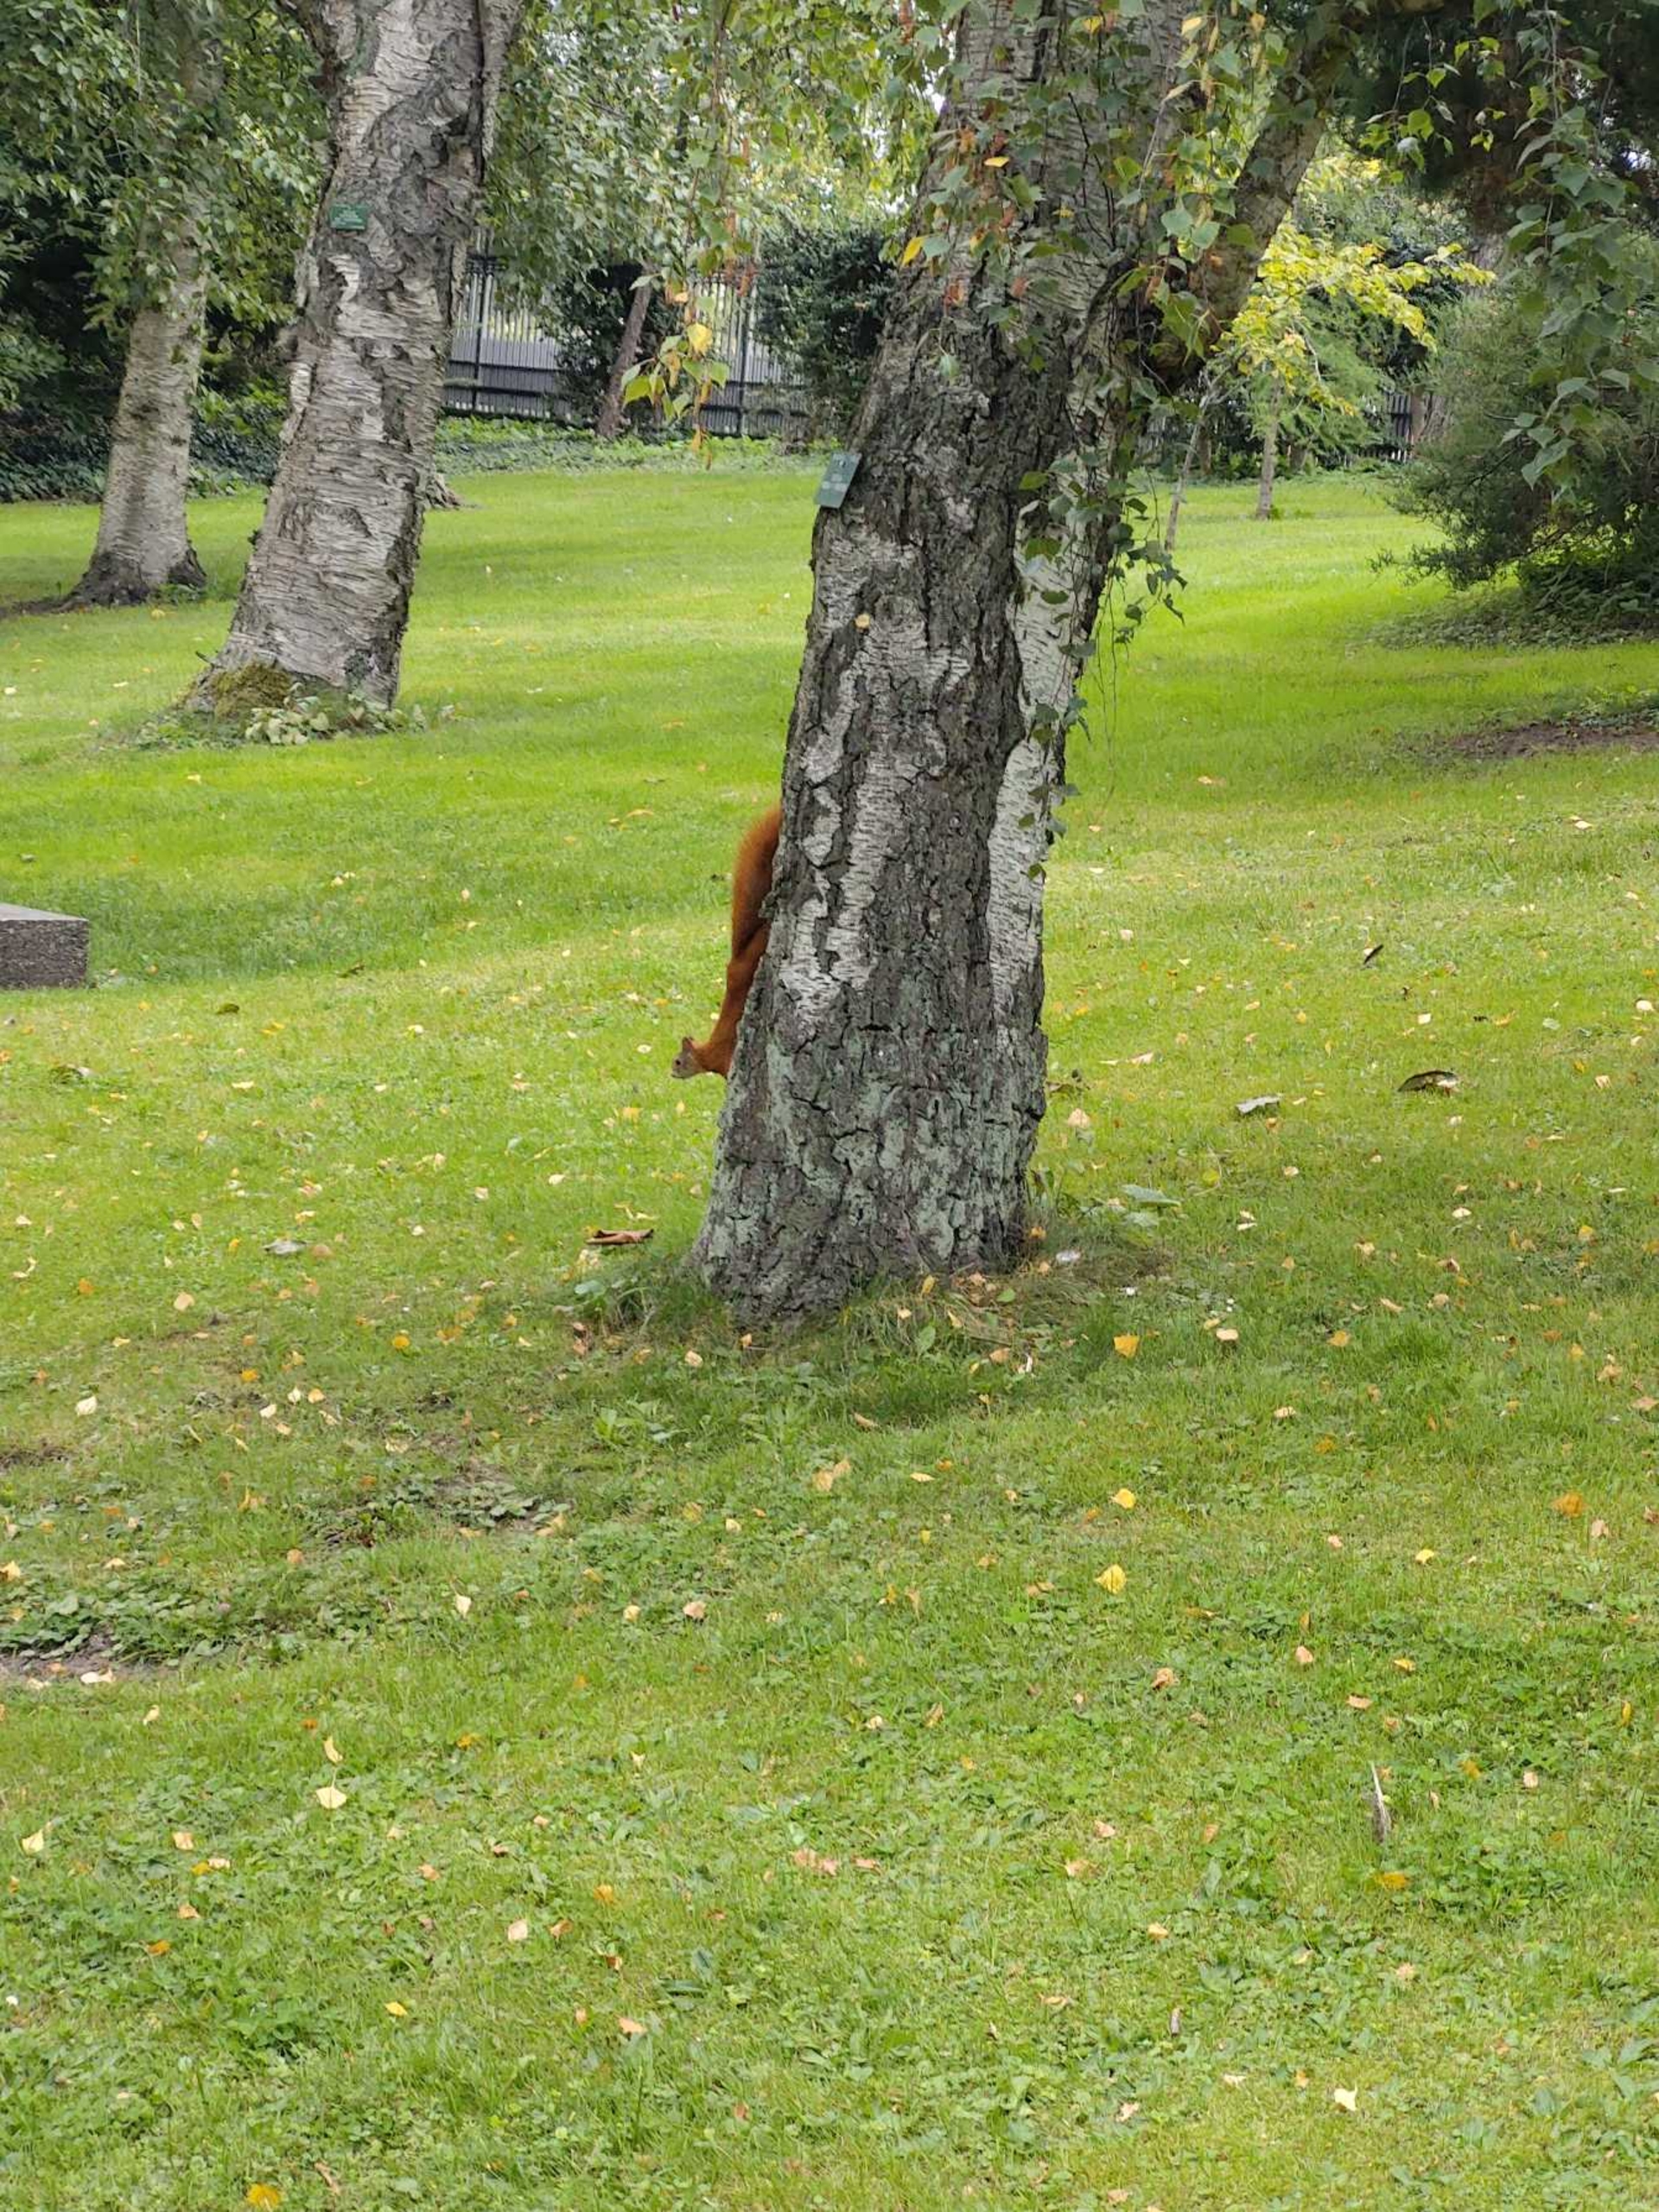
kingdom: Animalia
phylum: Chordata
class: Mammalia
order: Rodentia
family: Sciuridae
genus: Sciurus
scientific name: Sciurus vulgaris
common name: Egern
